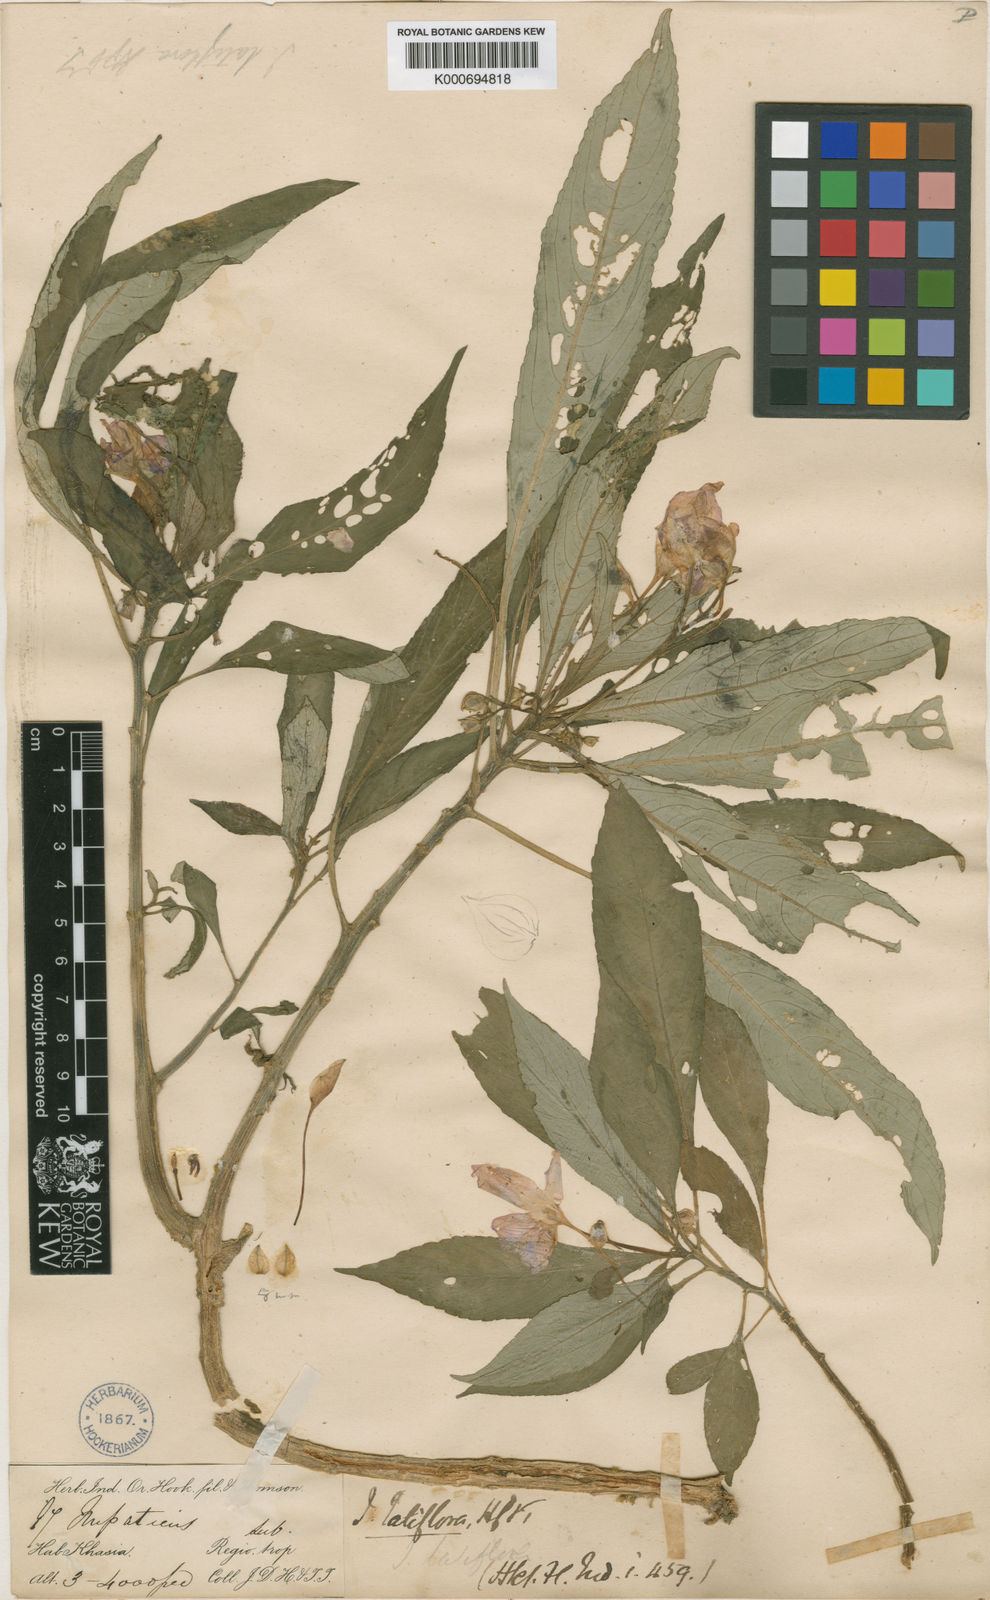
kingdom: Plantae
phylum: Tracheophyta
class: Magnoliopsida
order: Ericales
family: Balsaminaceae
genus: Impatiens
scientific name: Impatiens latiflora
